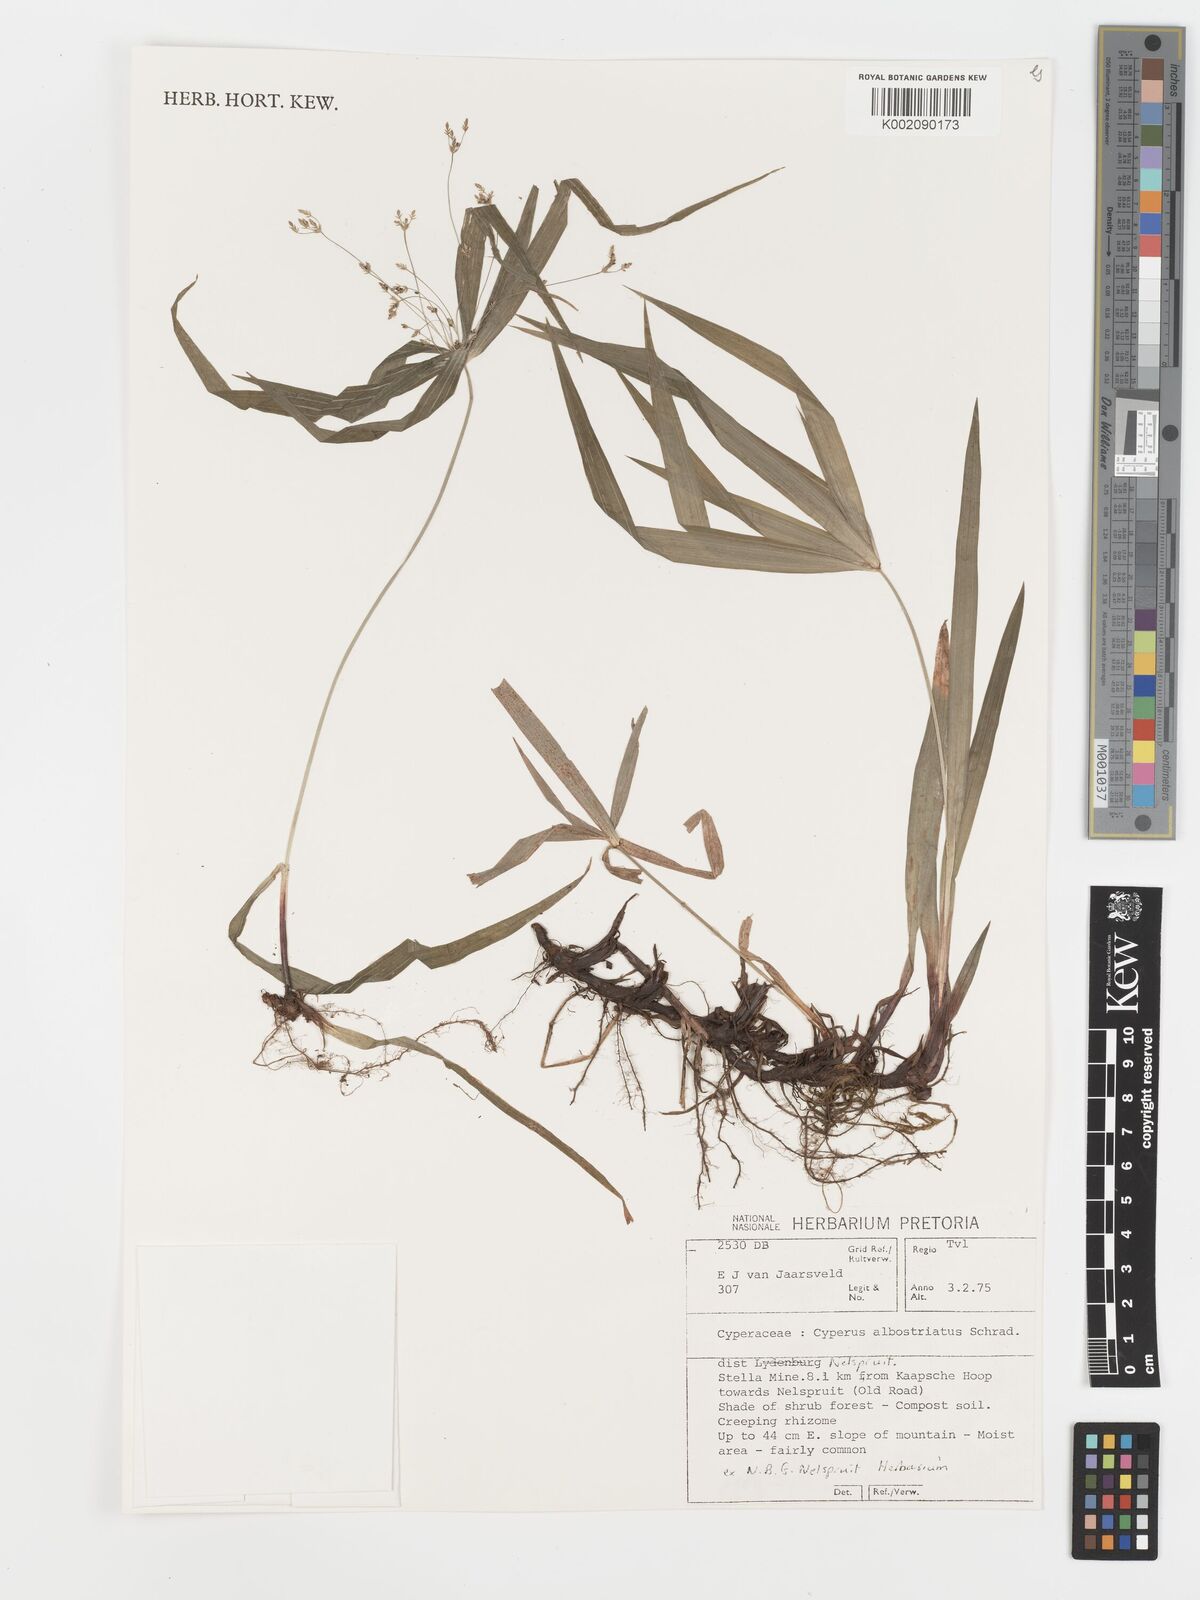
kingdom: Plantae
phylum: Tracheophyta
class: Liliopsida
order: Poales
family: Cyperaceae
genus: Cyperus
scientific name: Cyperus albostriatus
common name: Dwarf umbrella-grass
